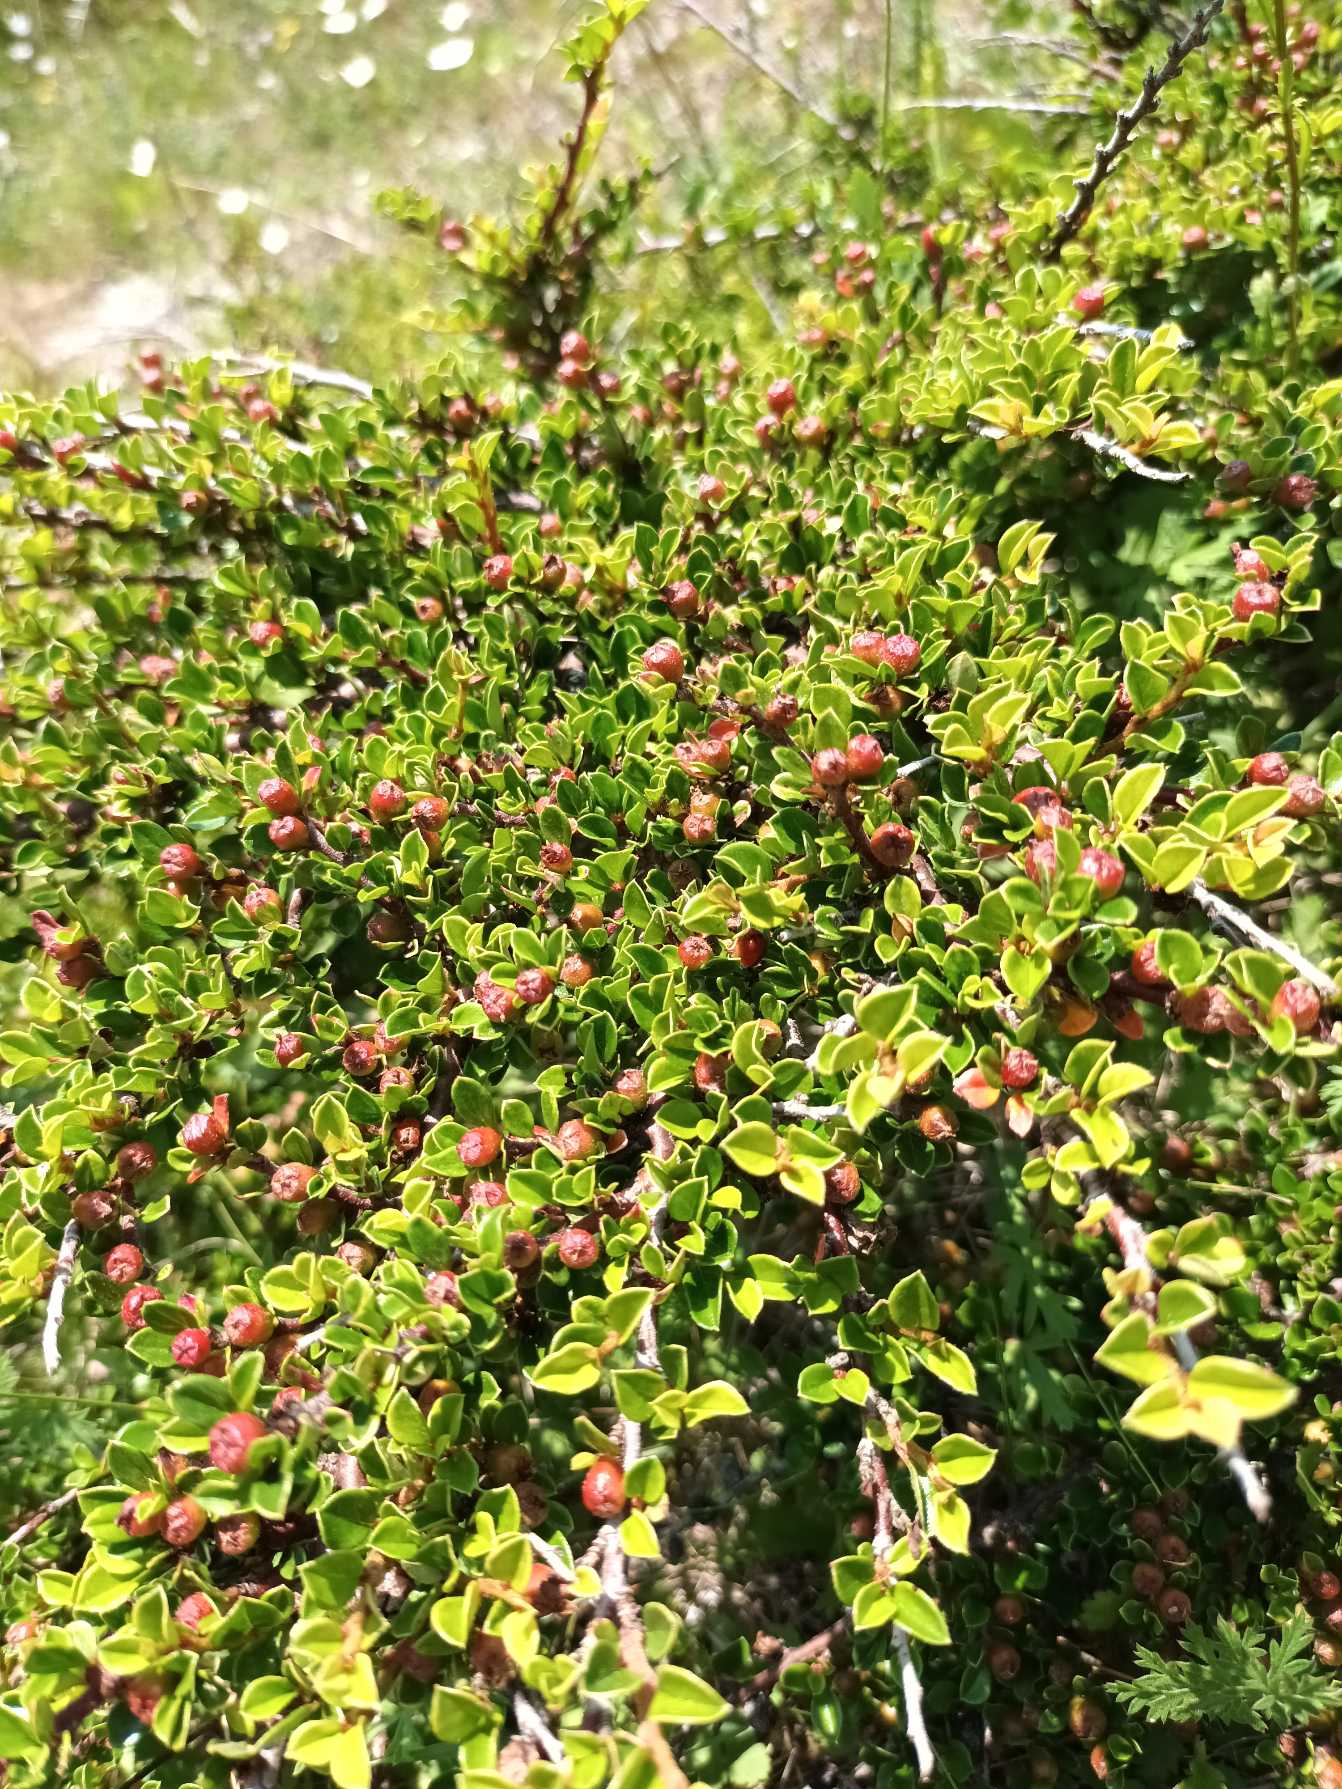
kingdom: Plantae
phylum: Tracheophyta
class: Magnoliopsida
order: Rosales
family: Rosaceae
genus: Cotoneaster
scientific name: Cotoneaster horizontalis
